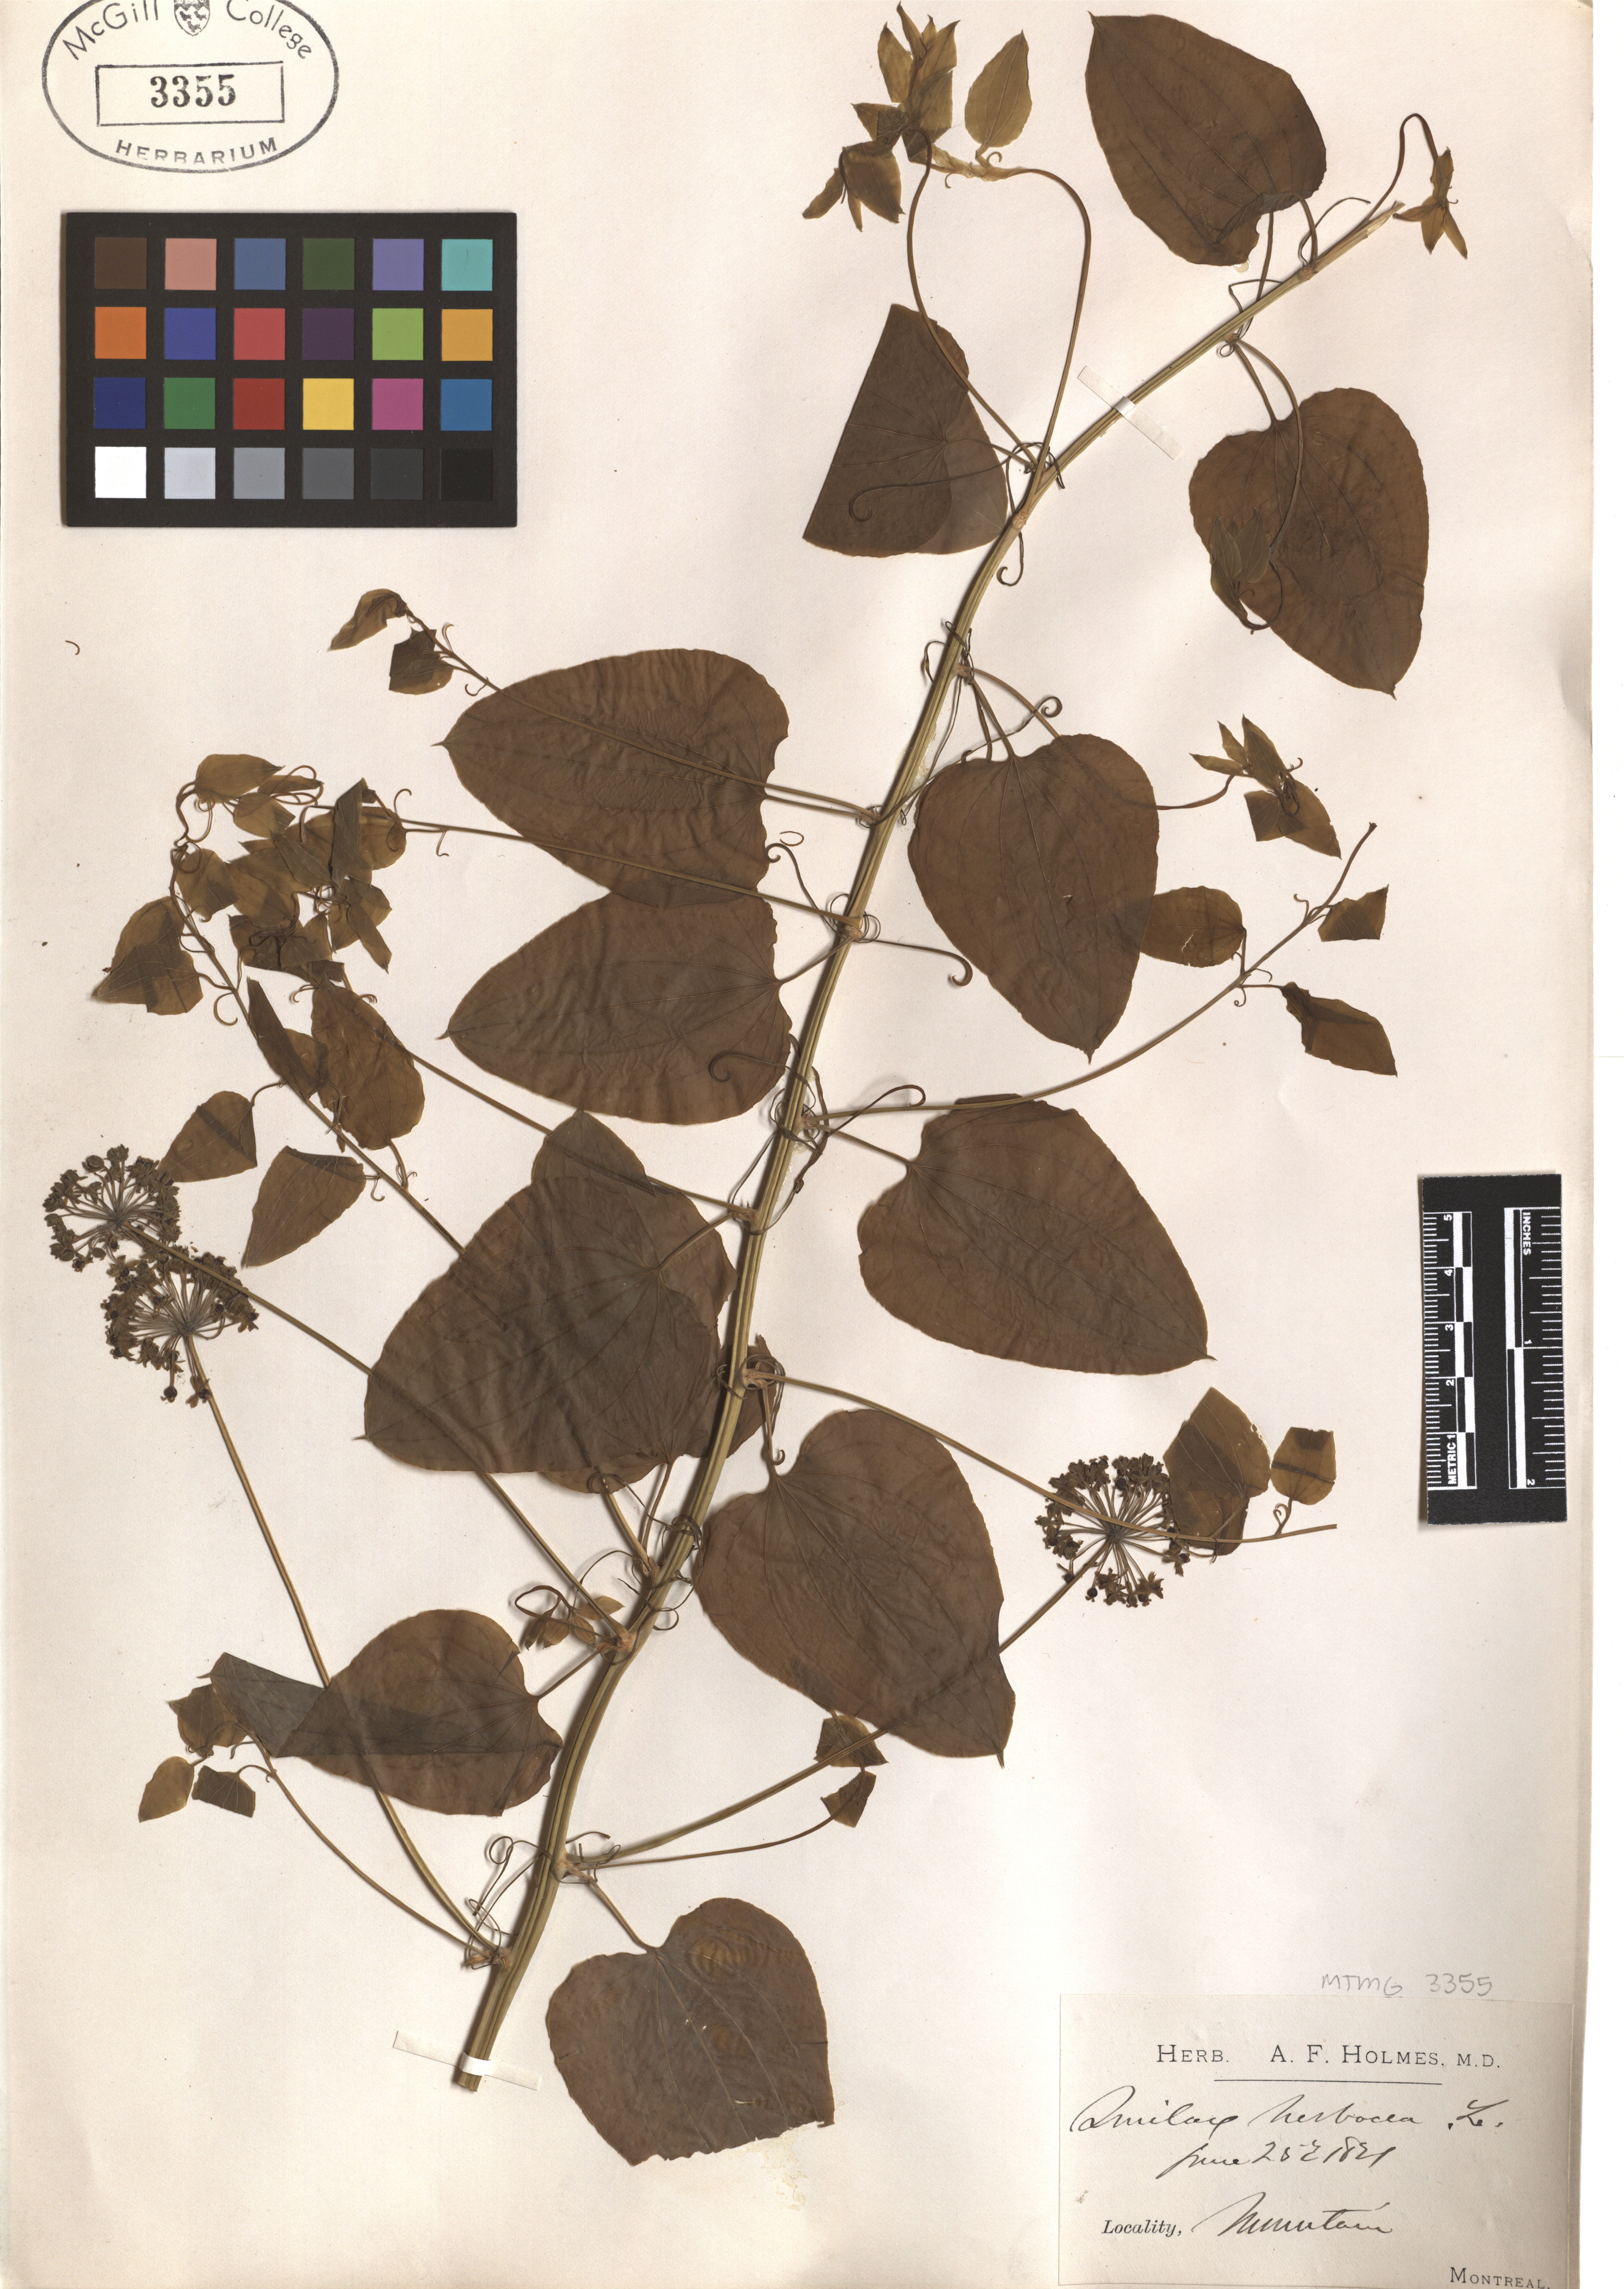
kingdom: Plantae
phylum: Tracheophyta
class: Liliopsida
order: Liliales
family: Smilacaceae
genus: Smilax
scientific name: Smilax herbacea
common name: Jacob's-ladder
